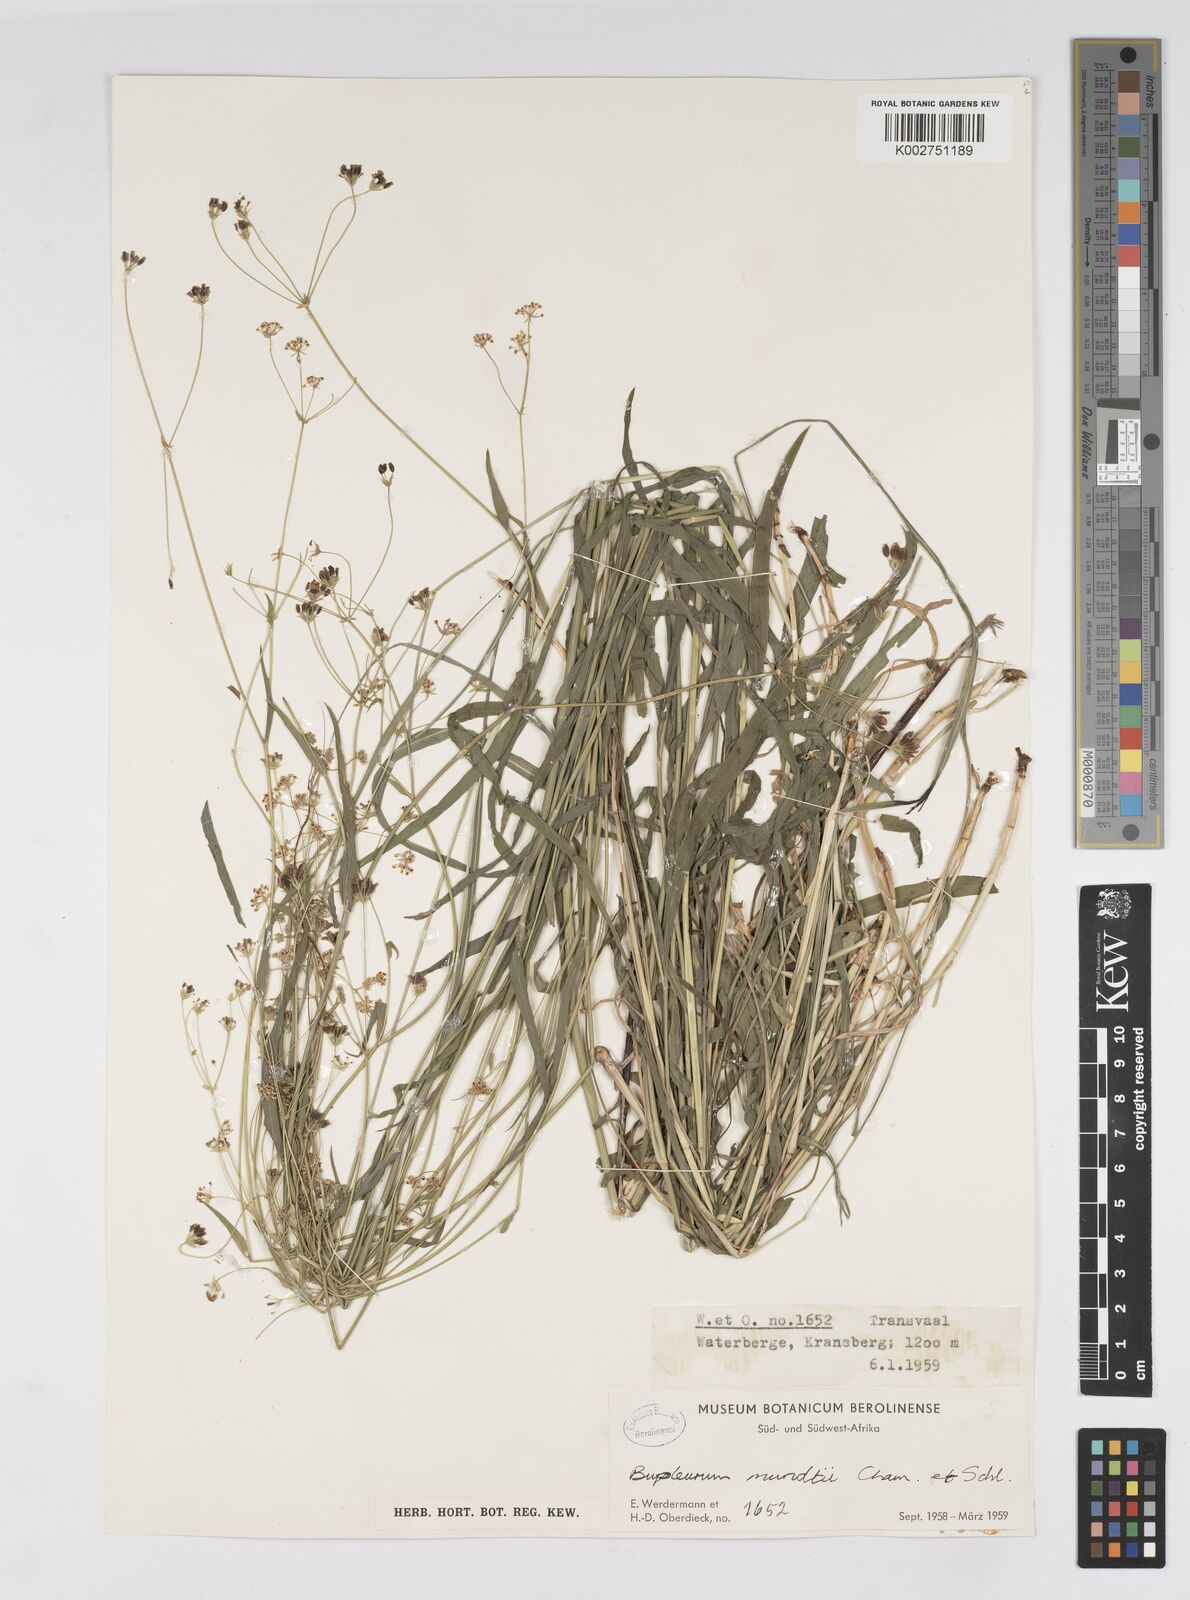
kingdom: Plantae
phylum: Tracheophyta
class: Magnoliopsida
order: Apiales
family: Apiaceae
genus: Bupleurum
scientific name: Bupleurum mundii
